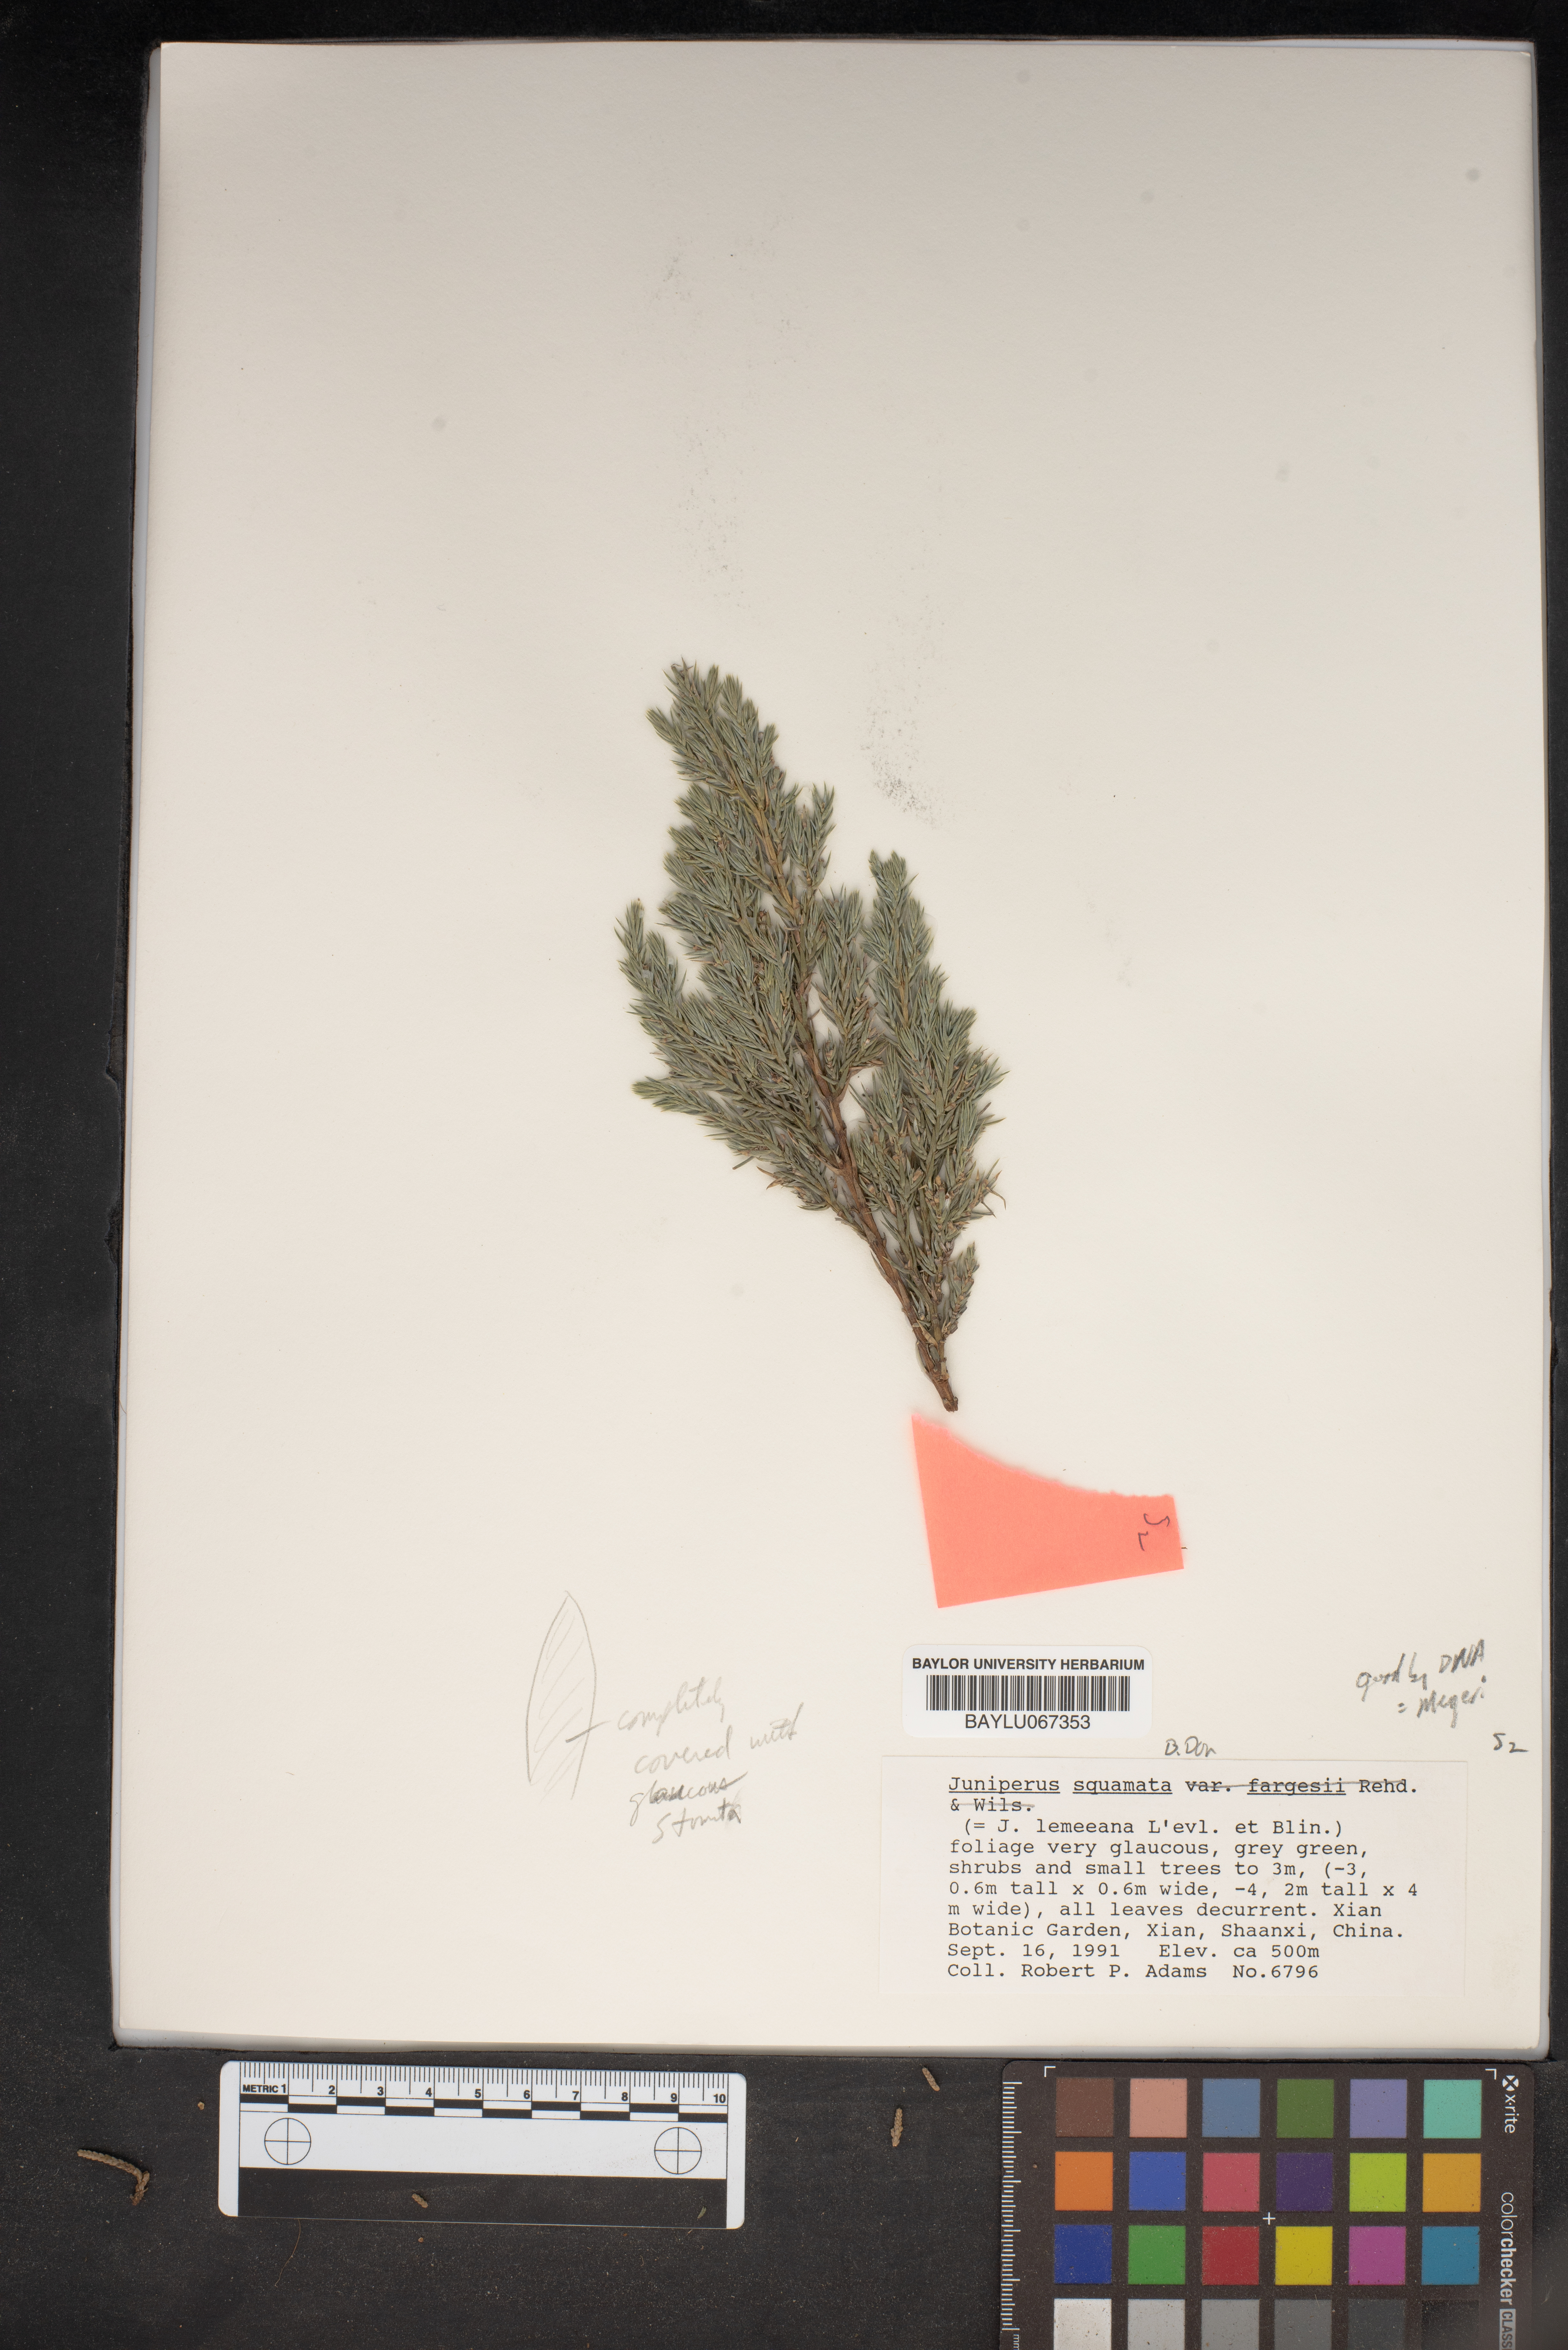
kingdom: Plantae
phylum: Tracheophyta
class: Pinopsida
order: Pinales
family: Cupressaceae
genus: Juniperus
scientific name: Juniperus squamata
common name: Flaky juniper
